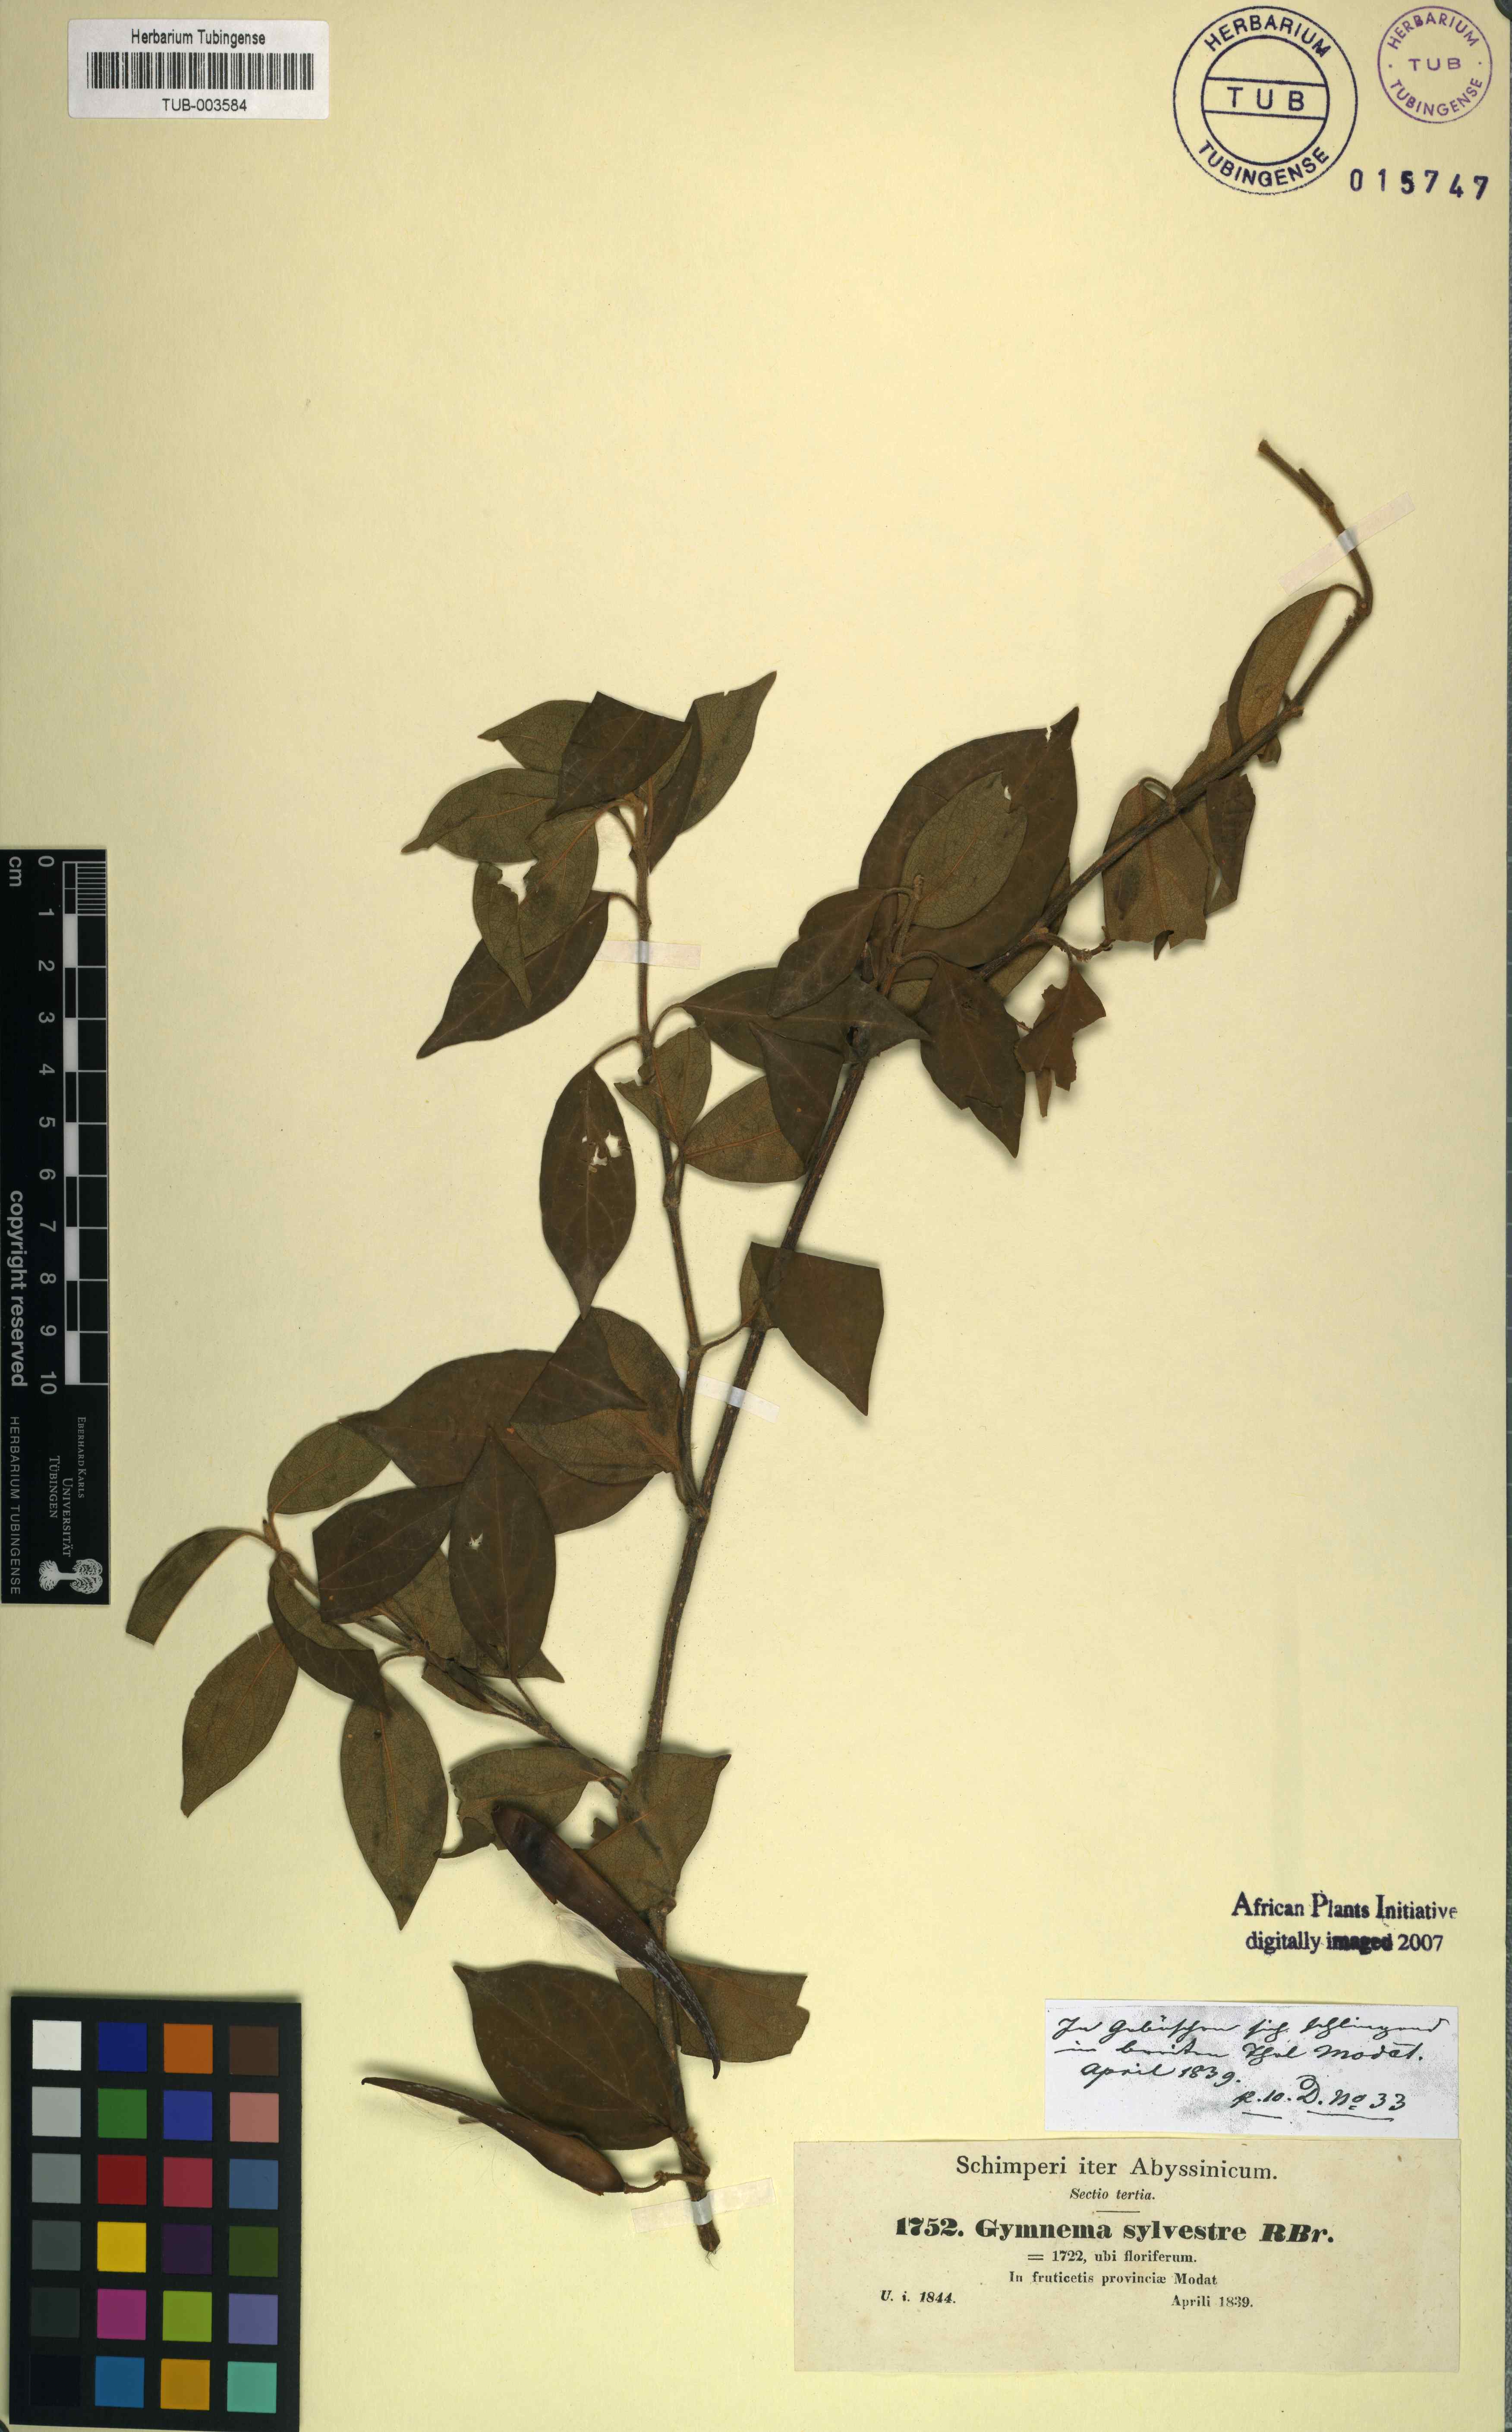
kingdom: Plantae
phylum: Tracheophyta
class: Magnoliopsida
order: Gentianales
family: Apocynaceae
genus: Gymnema
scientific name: Gymnema sylvestre
